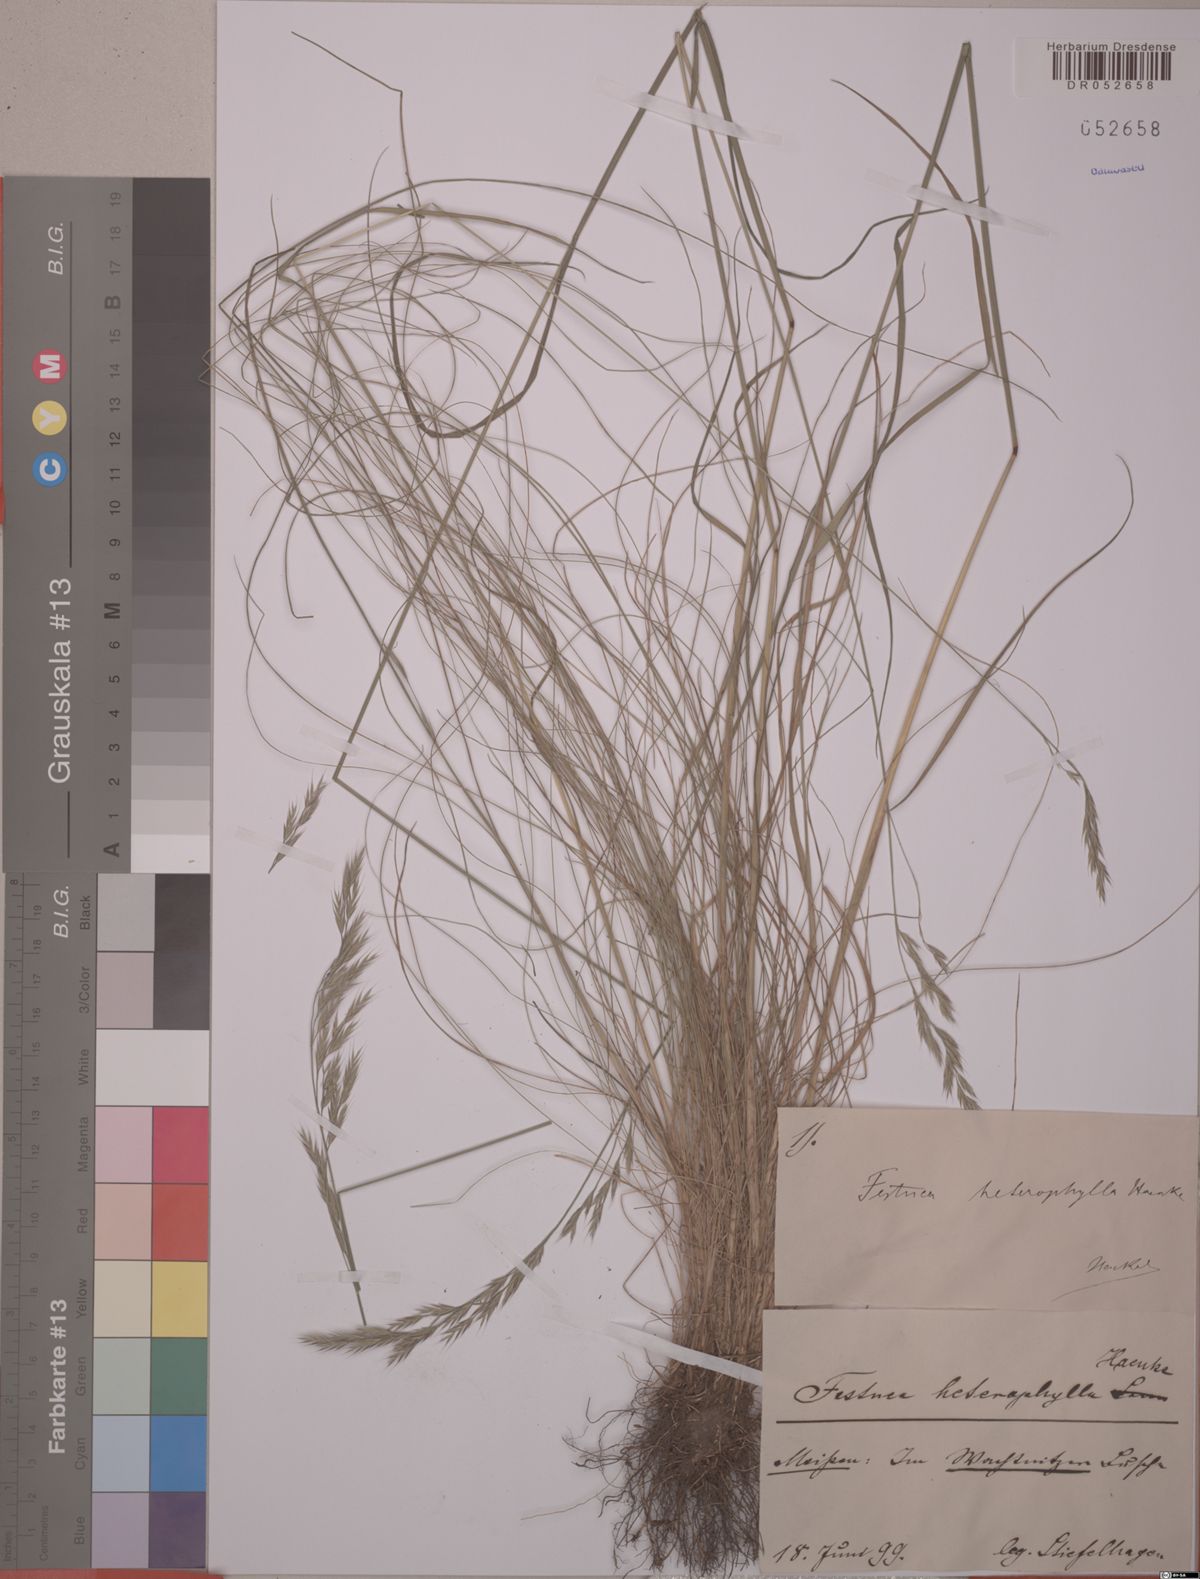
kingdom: Plantae
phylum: Tracheophyta
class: Liliopsida
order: Poales
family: Poaceae
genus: Festuca
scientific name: Festuca heterophylla
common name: Various-leaved fescue
